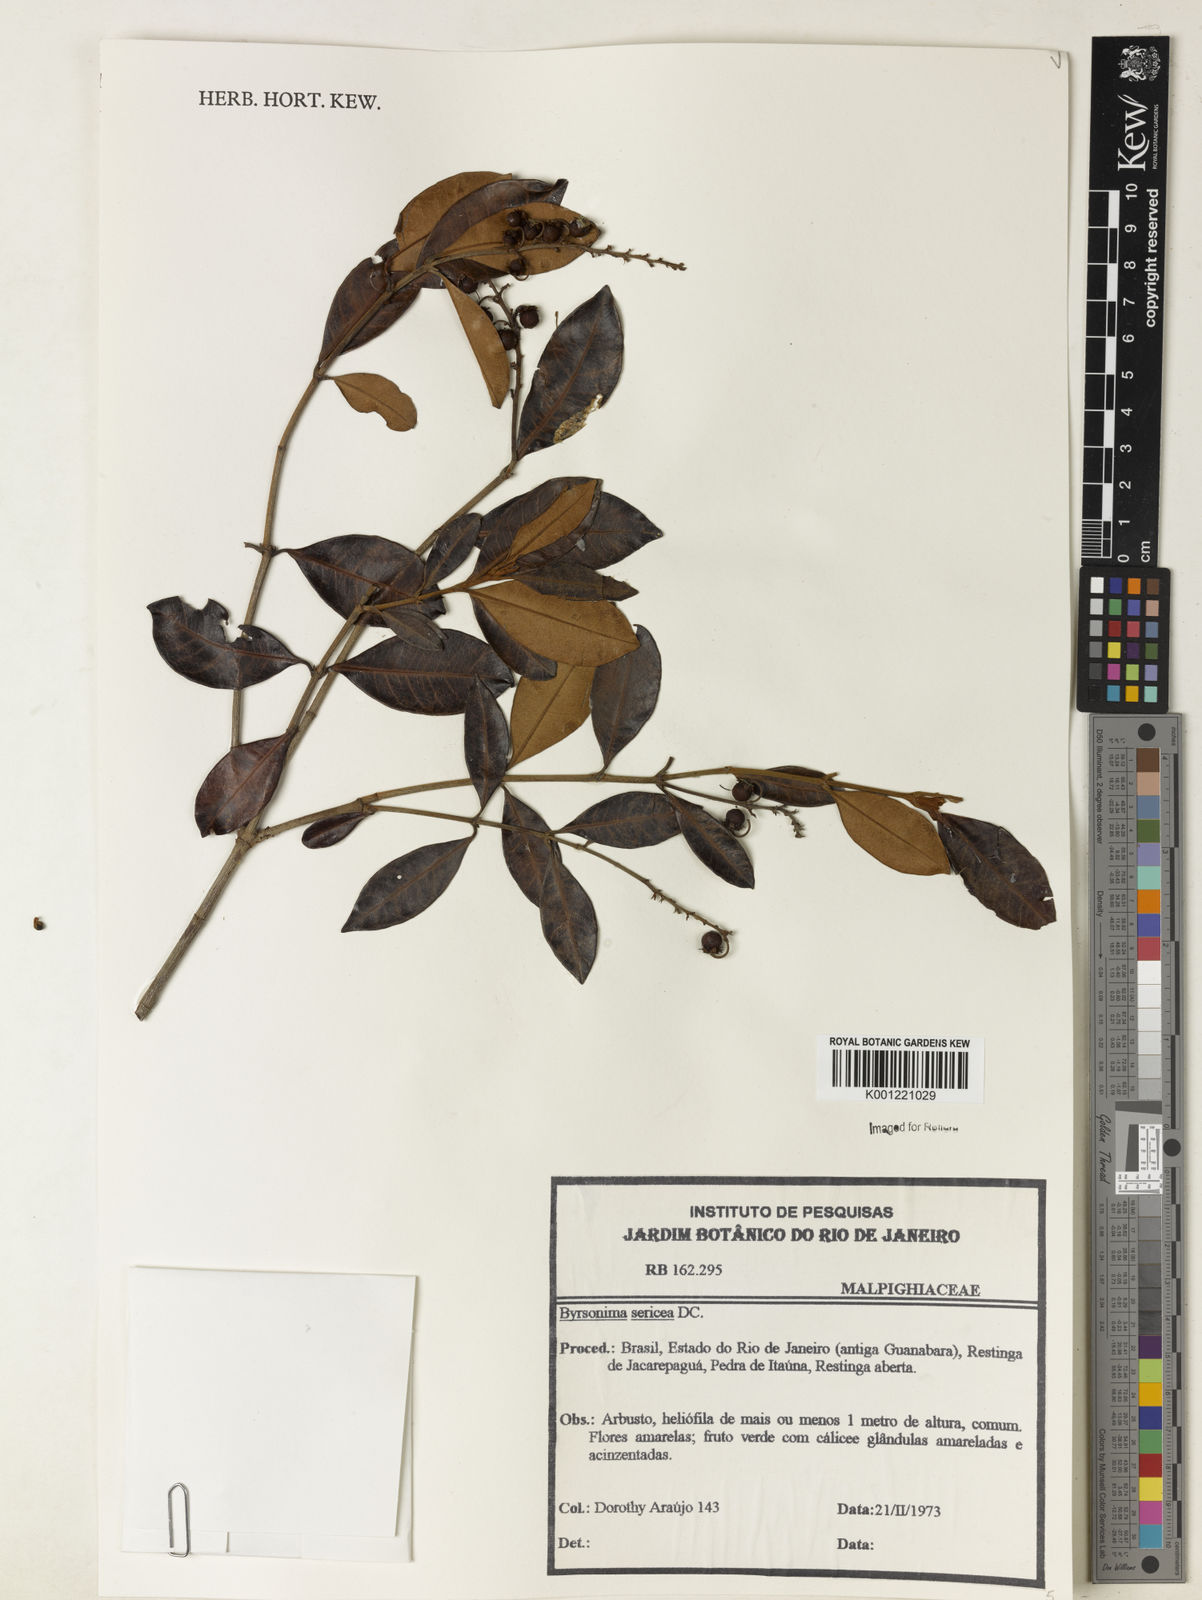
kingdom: Plantae
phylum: Tracheophyta
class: Magnoliopsida
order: Malpighiales
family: Malpighiaceae
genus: Byrsonima
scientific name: Byrsonima sericea
